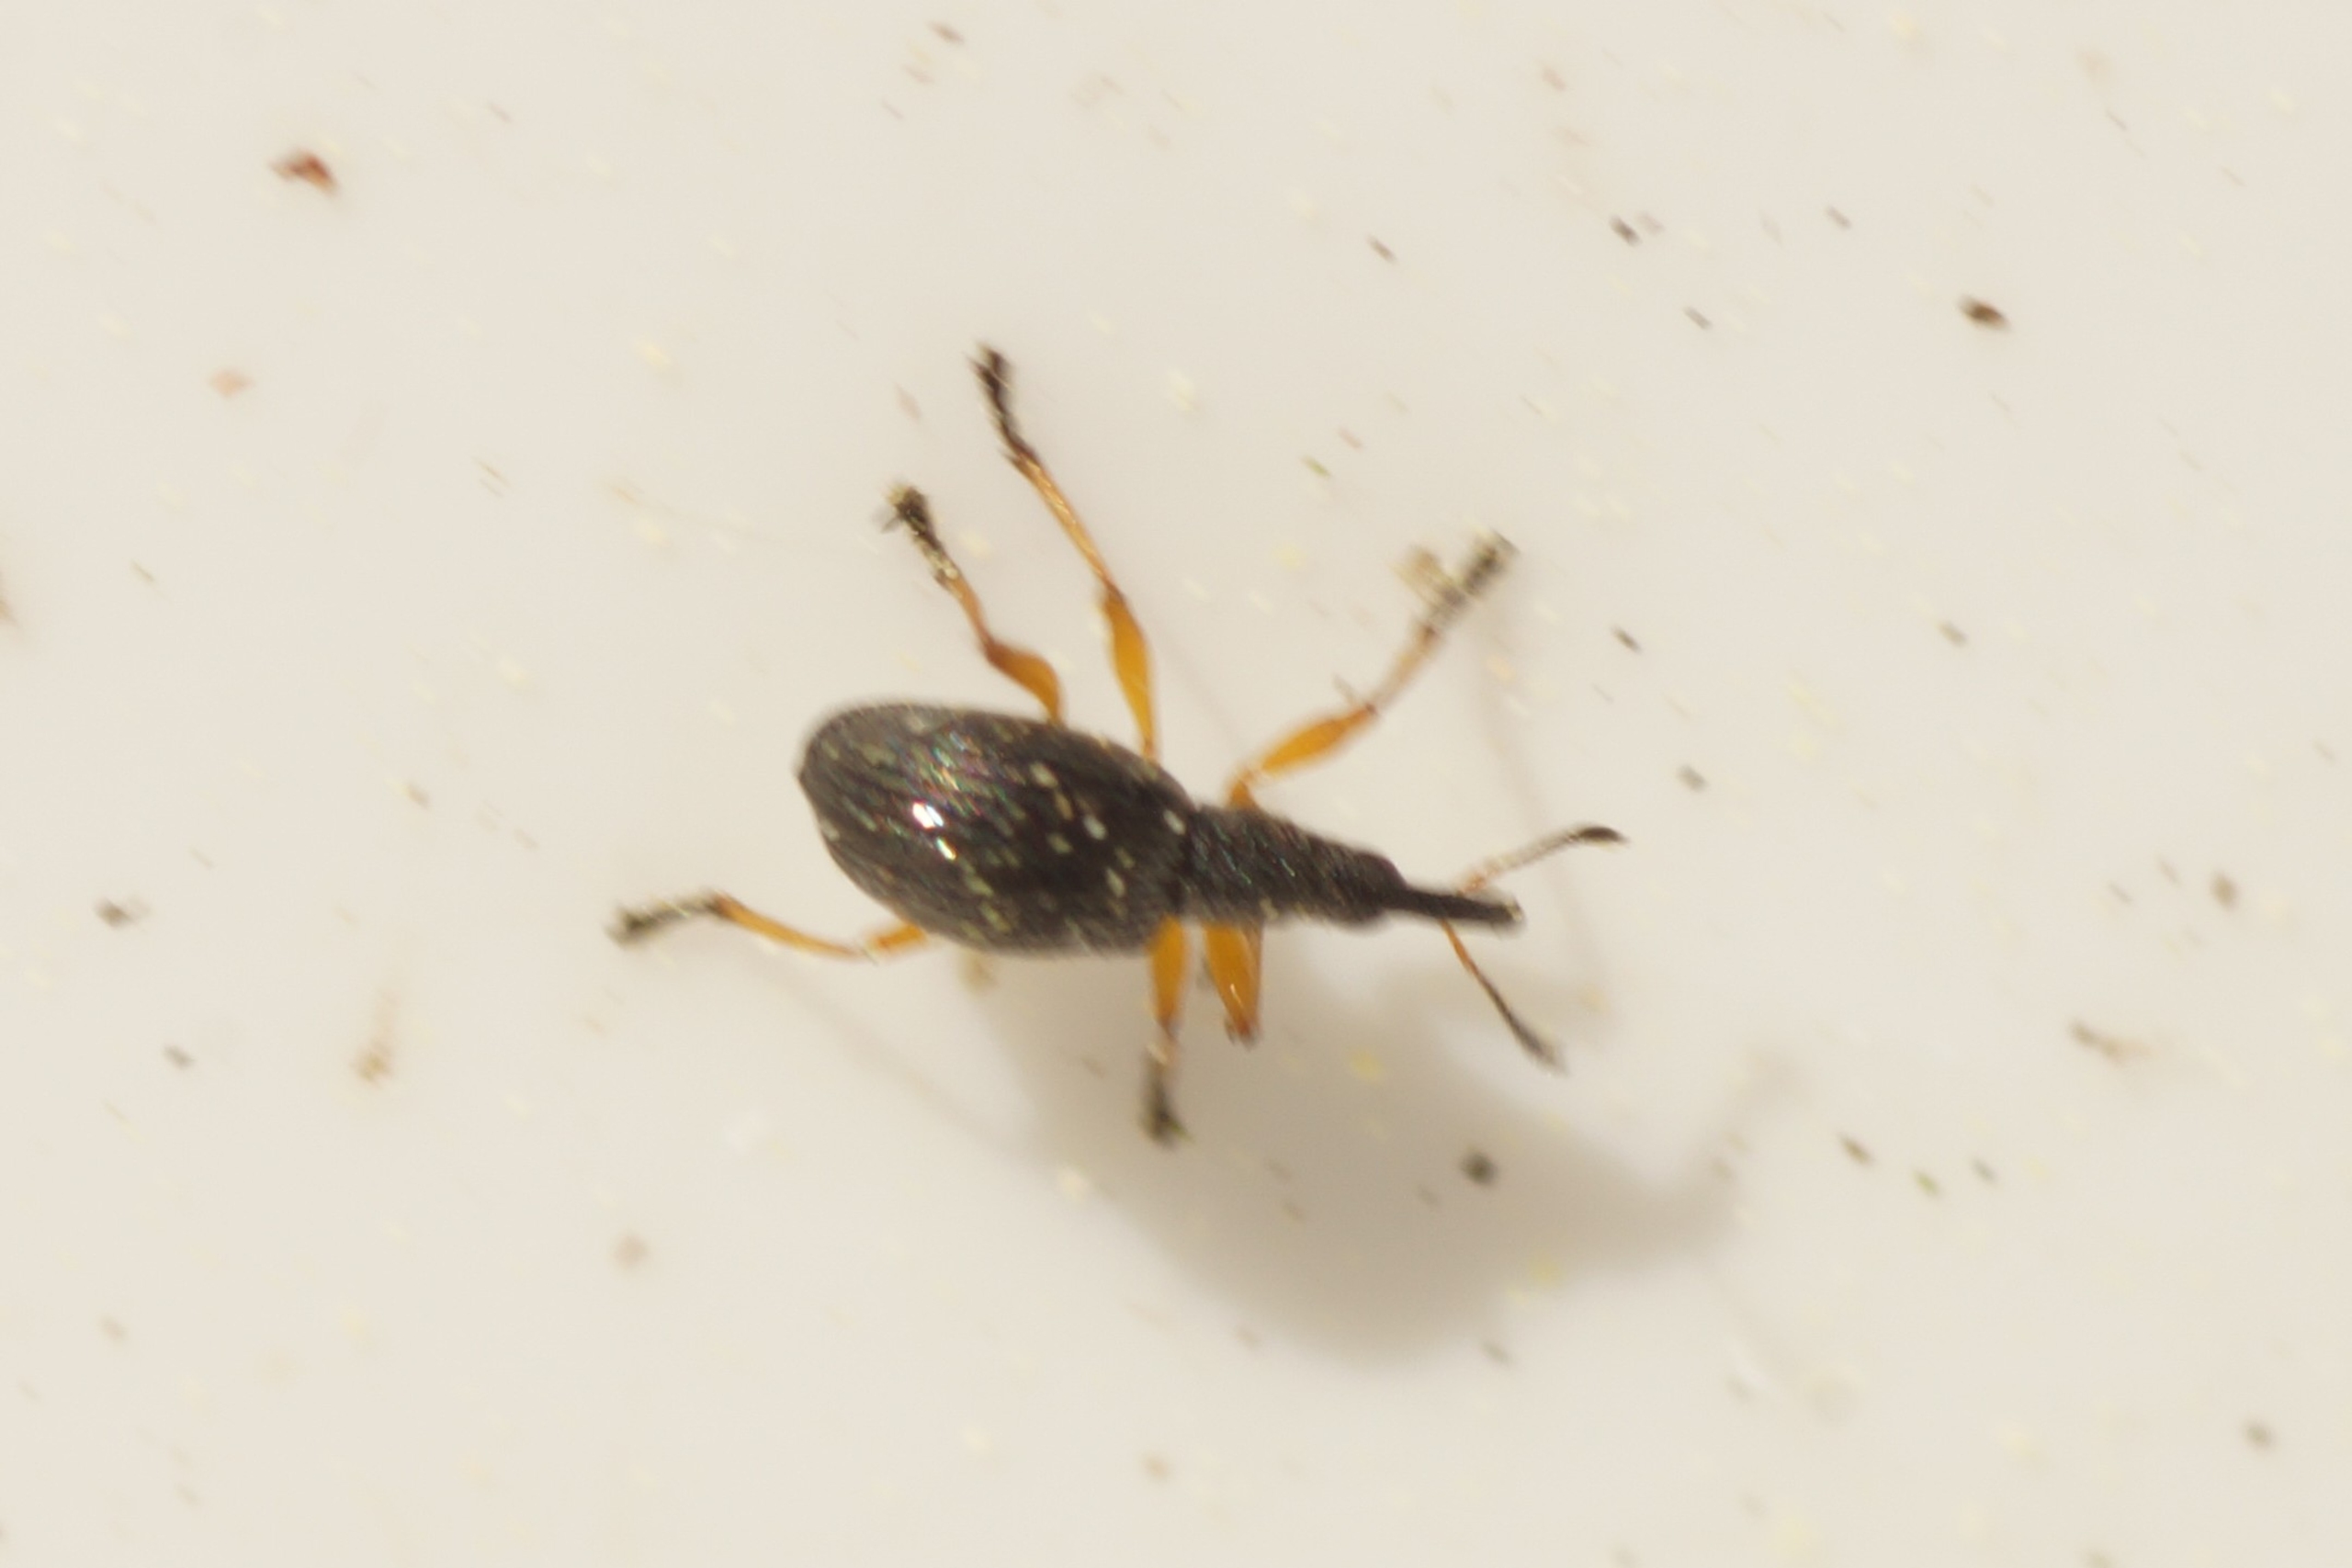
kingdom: Animalia
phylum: Arthropoda
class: Insecta
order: Coleoptera
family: Apionidae
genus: Protapion
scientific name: Protapion fulvipes
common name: Hvidkløversnudebille
